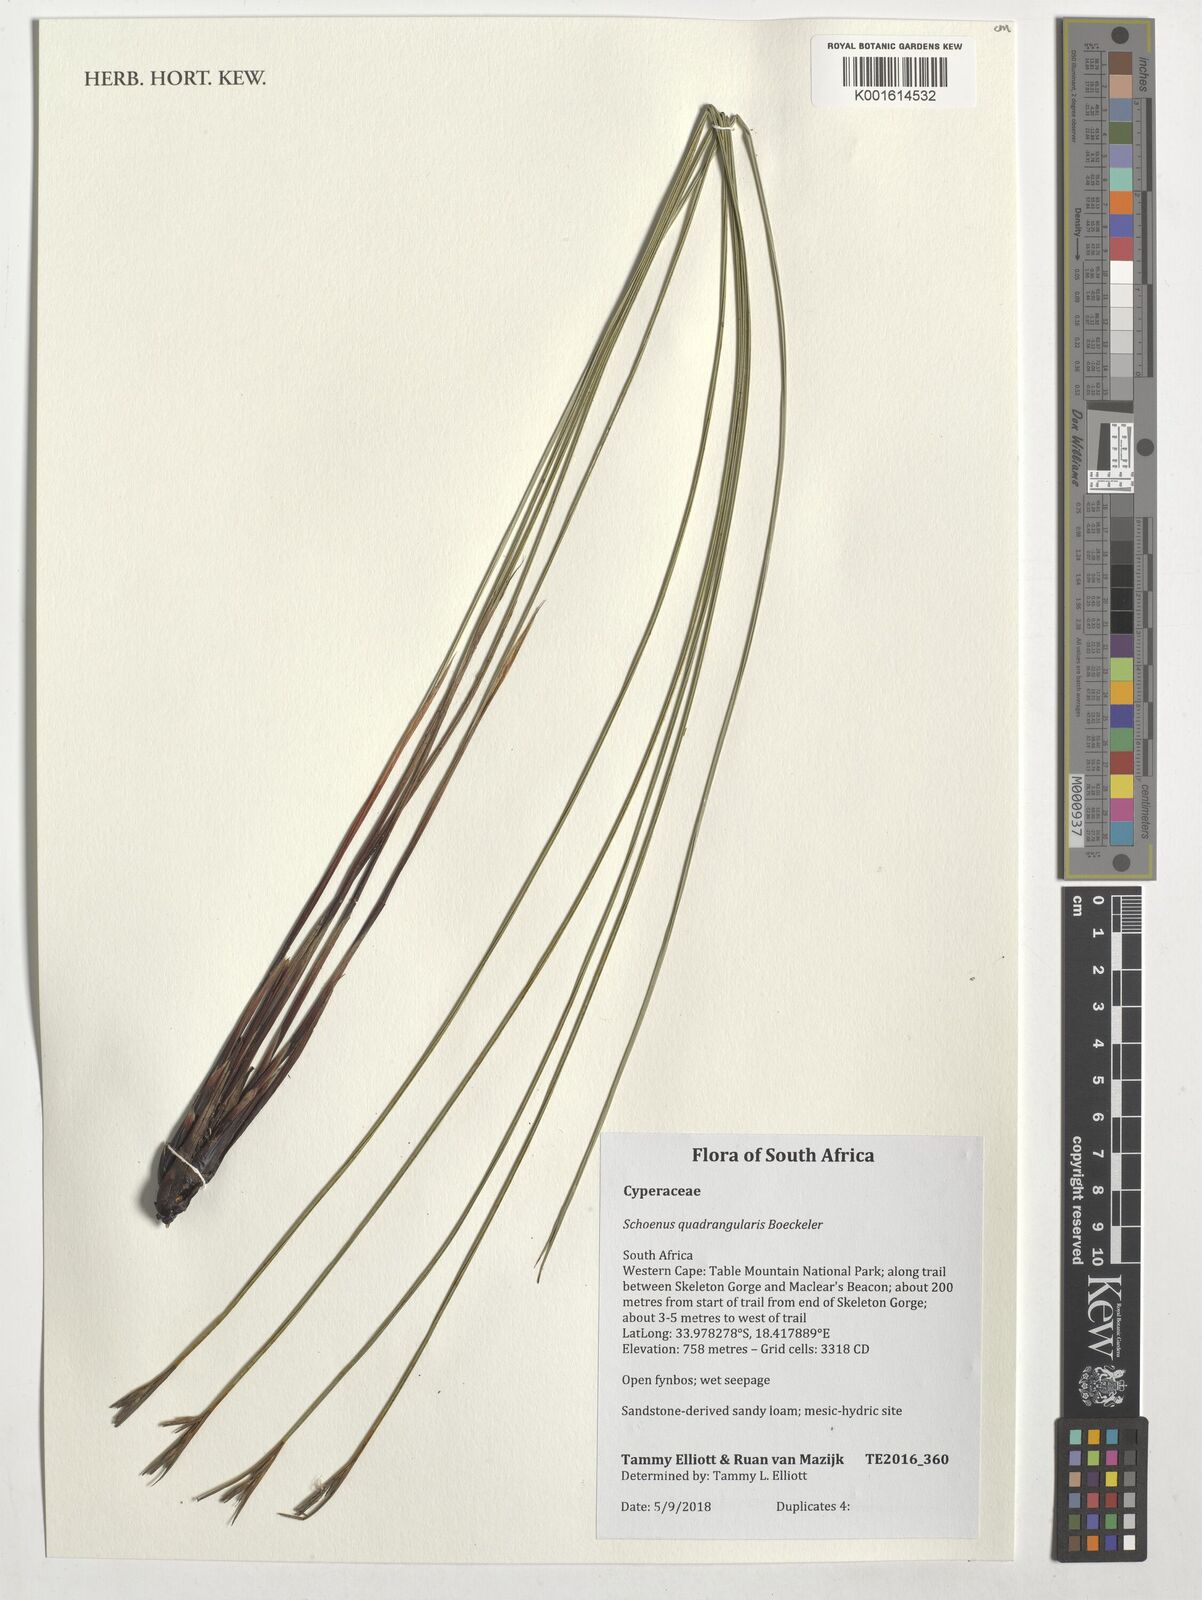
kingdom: Plantae
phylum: Tracheophyta
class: Liliopsida
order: Poales
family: Cyperaceae
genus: Schoenus
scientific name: Schoenus quadrangularis
